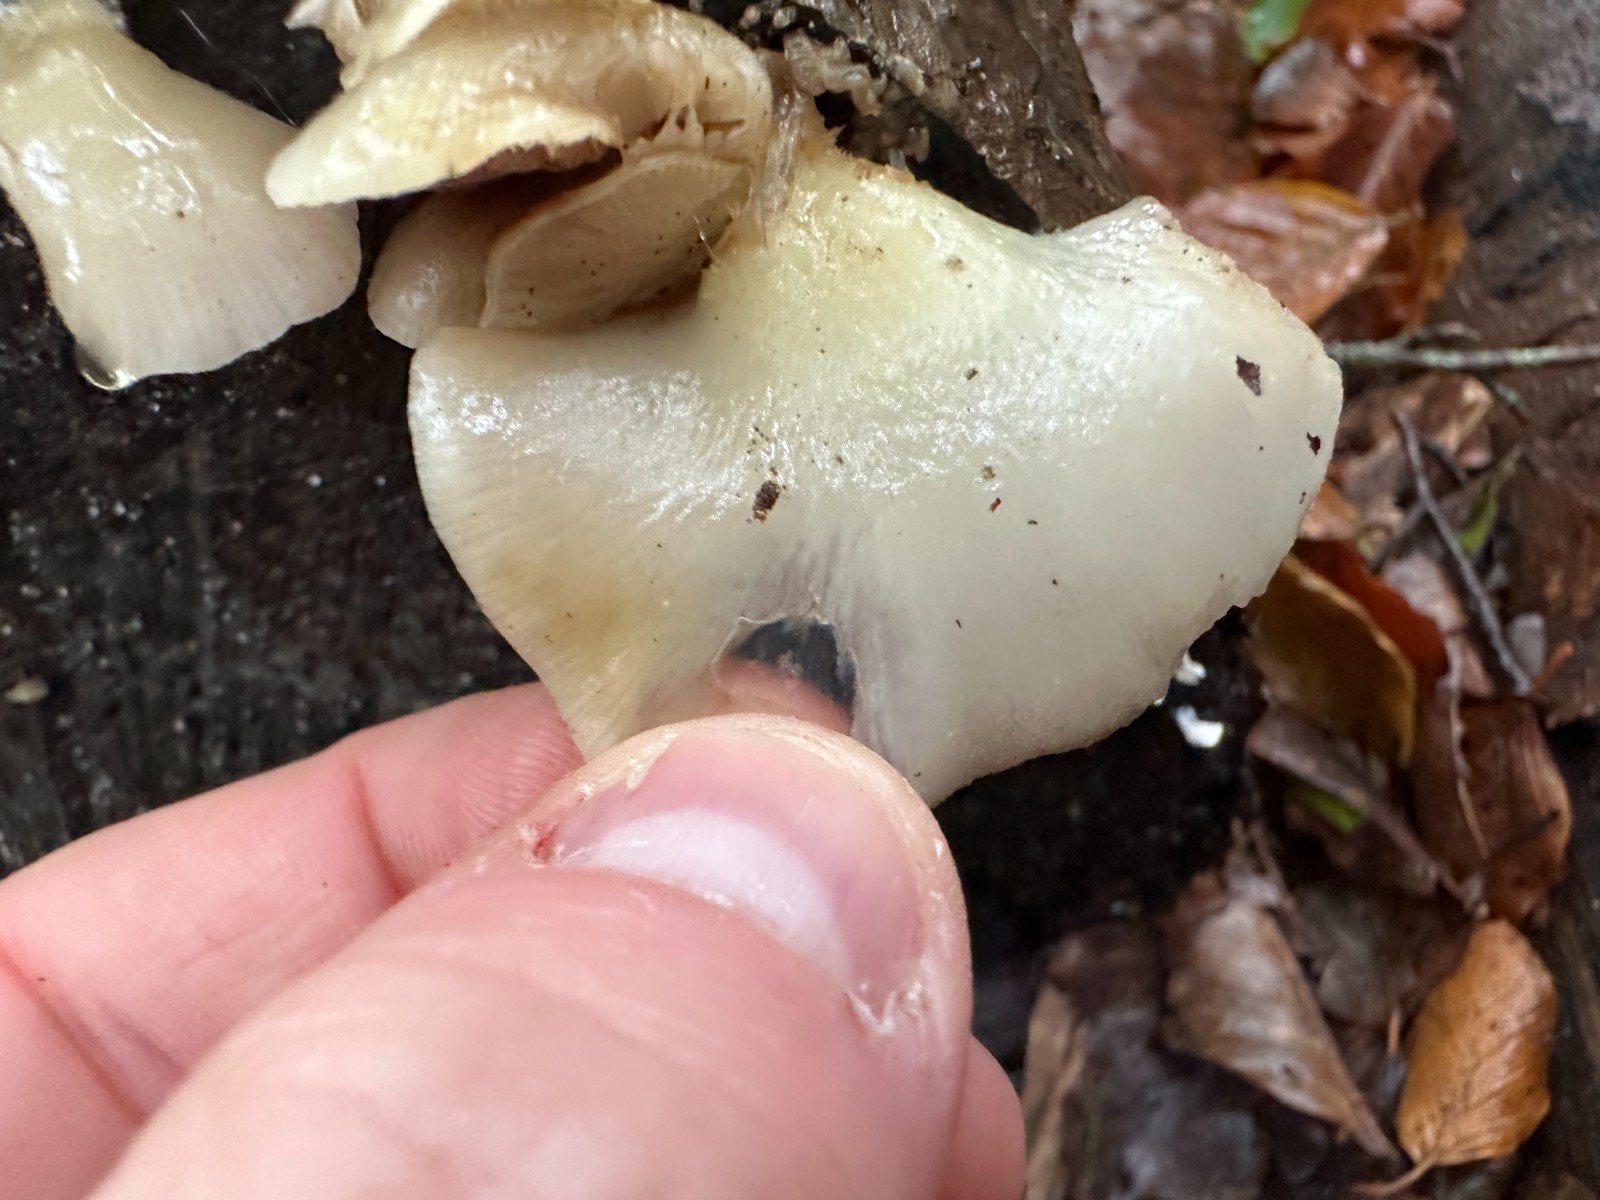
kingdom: Fungi
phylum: Basidiomycota
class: Agaricomycetes
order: Agaricales
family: Crepidotaceae
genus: Crepidotus
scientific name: Crepidotus mollis
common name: blød muslingesvamp
